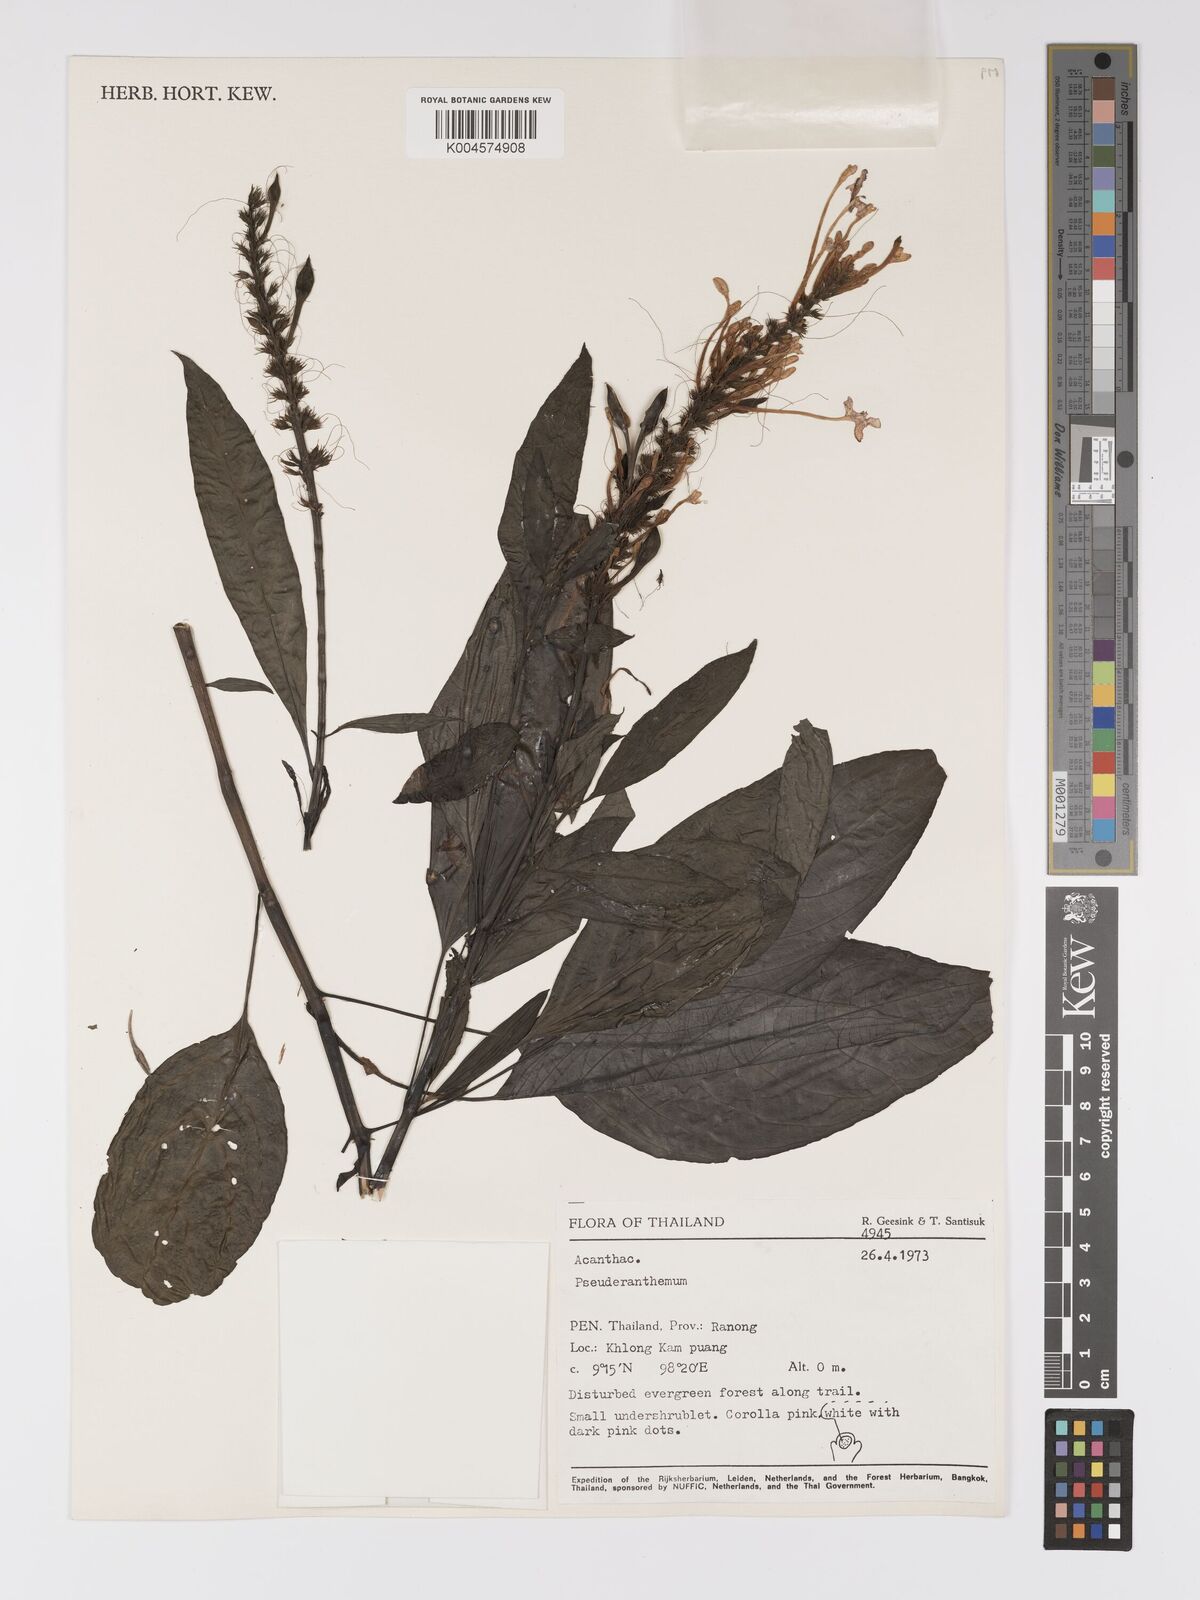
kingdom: Plantae
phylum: Tracheophyta
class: Magnoliopsida
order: Lamiales
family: Acanthaceae
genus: Pseuderanthemum
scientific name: Pseuderanthemum
